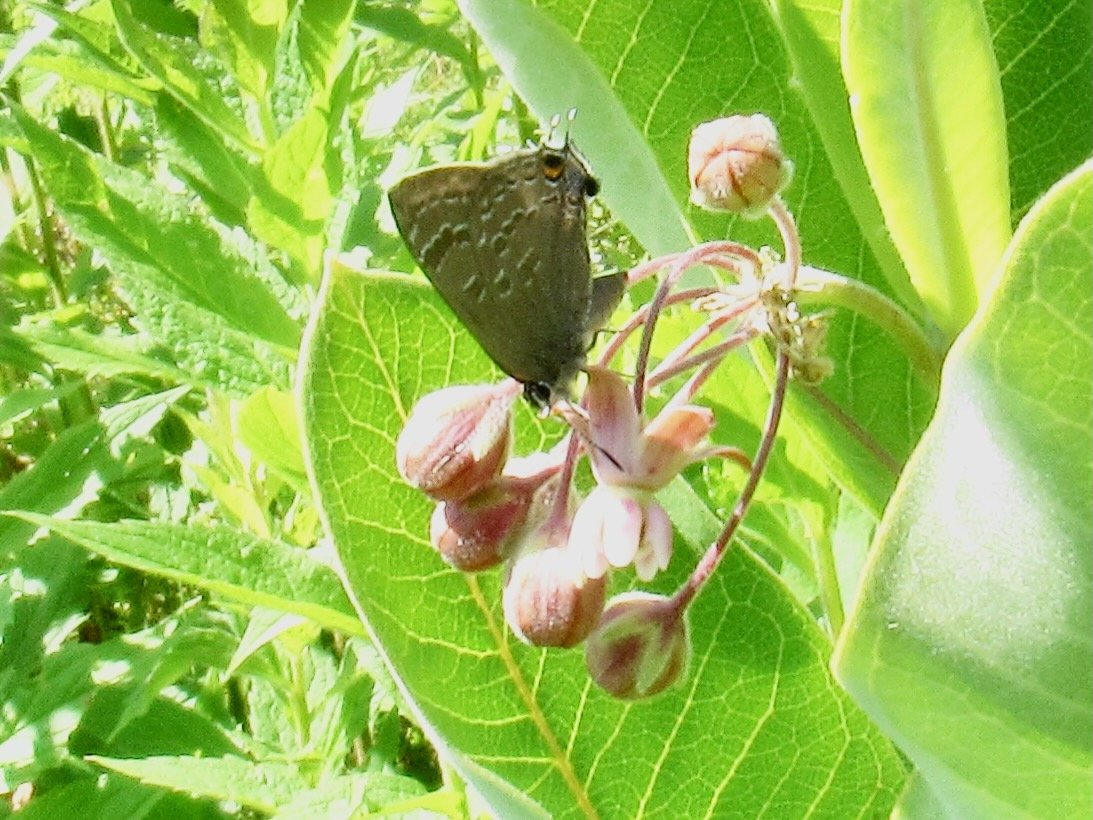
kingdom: Animalia
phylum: Arthropoda
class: Insecta
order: Lepidoptera
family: Lycaenidae
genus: Strymon
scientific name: Strymon caryaevorus
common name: Hickory Hairstreak
